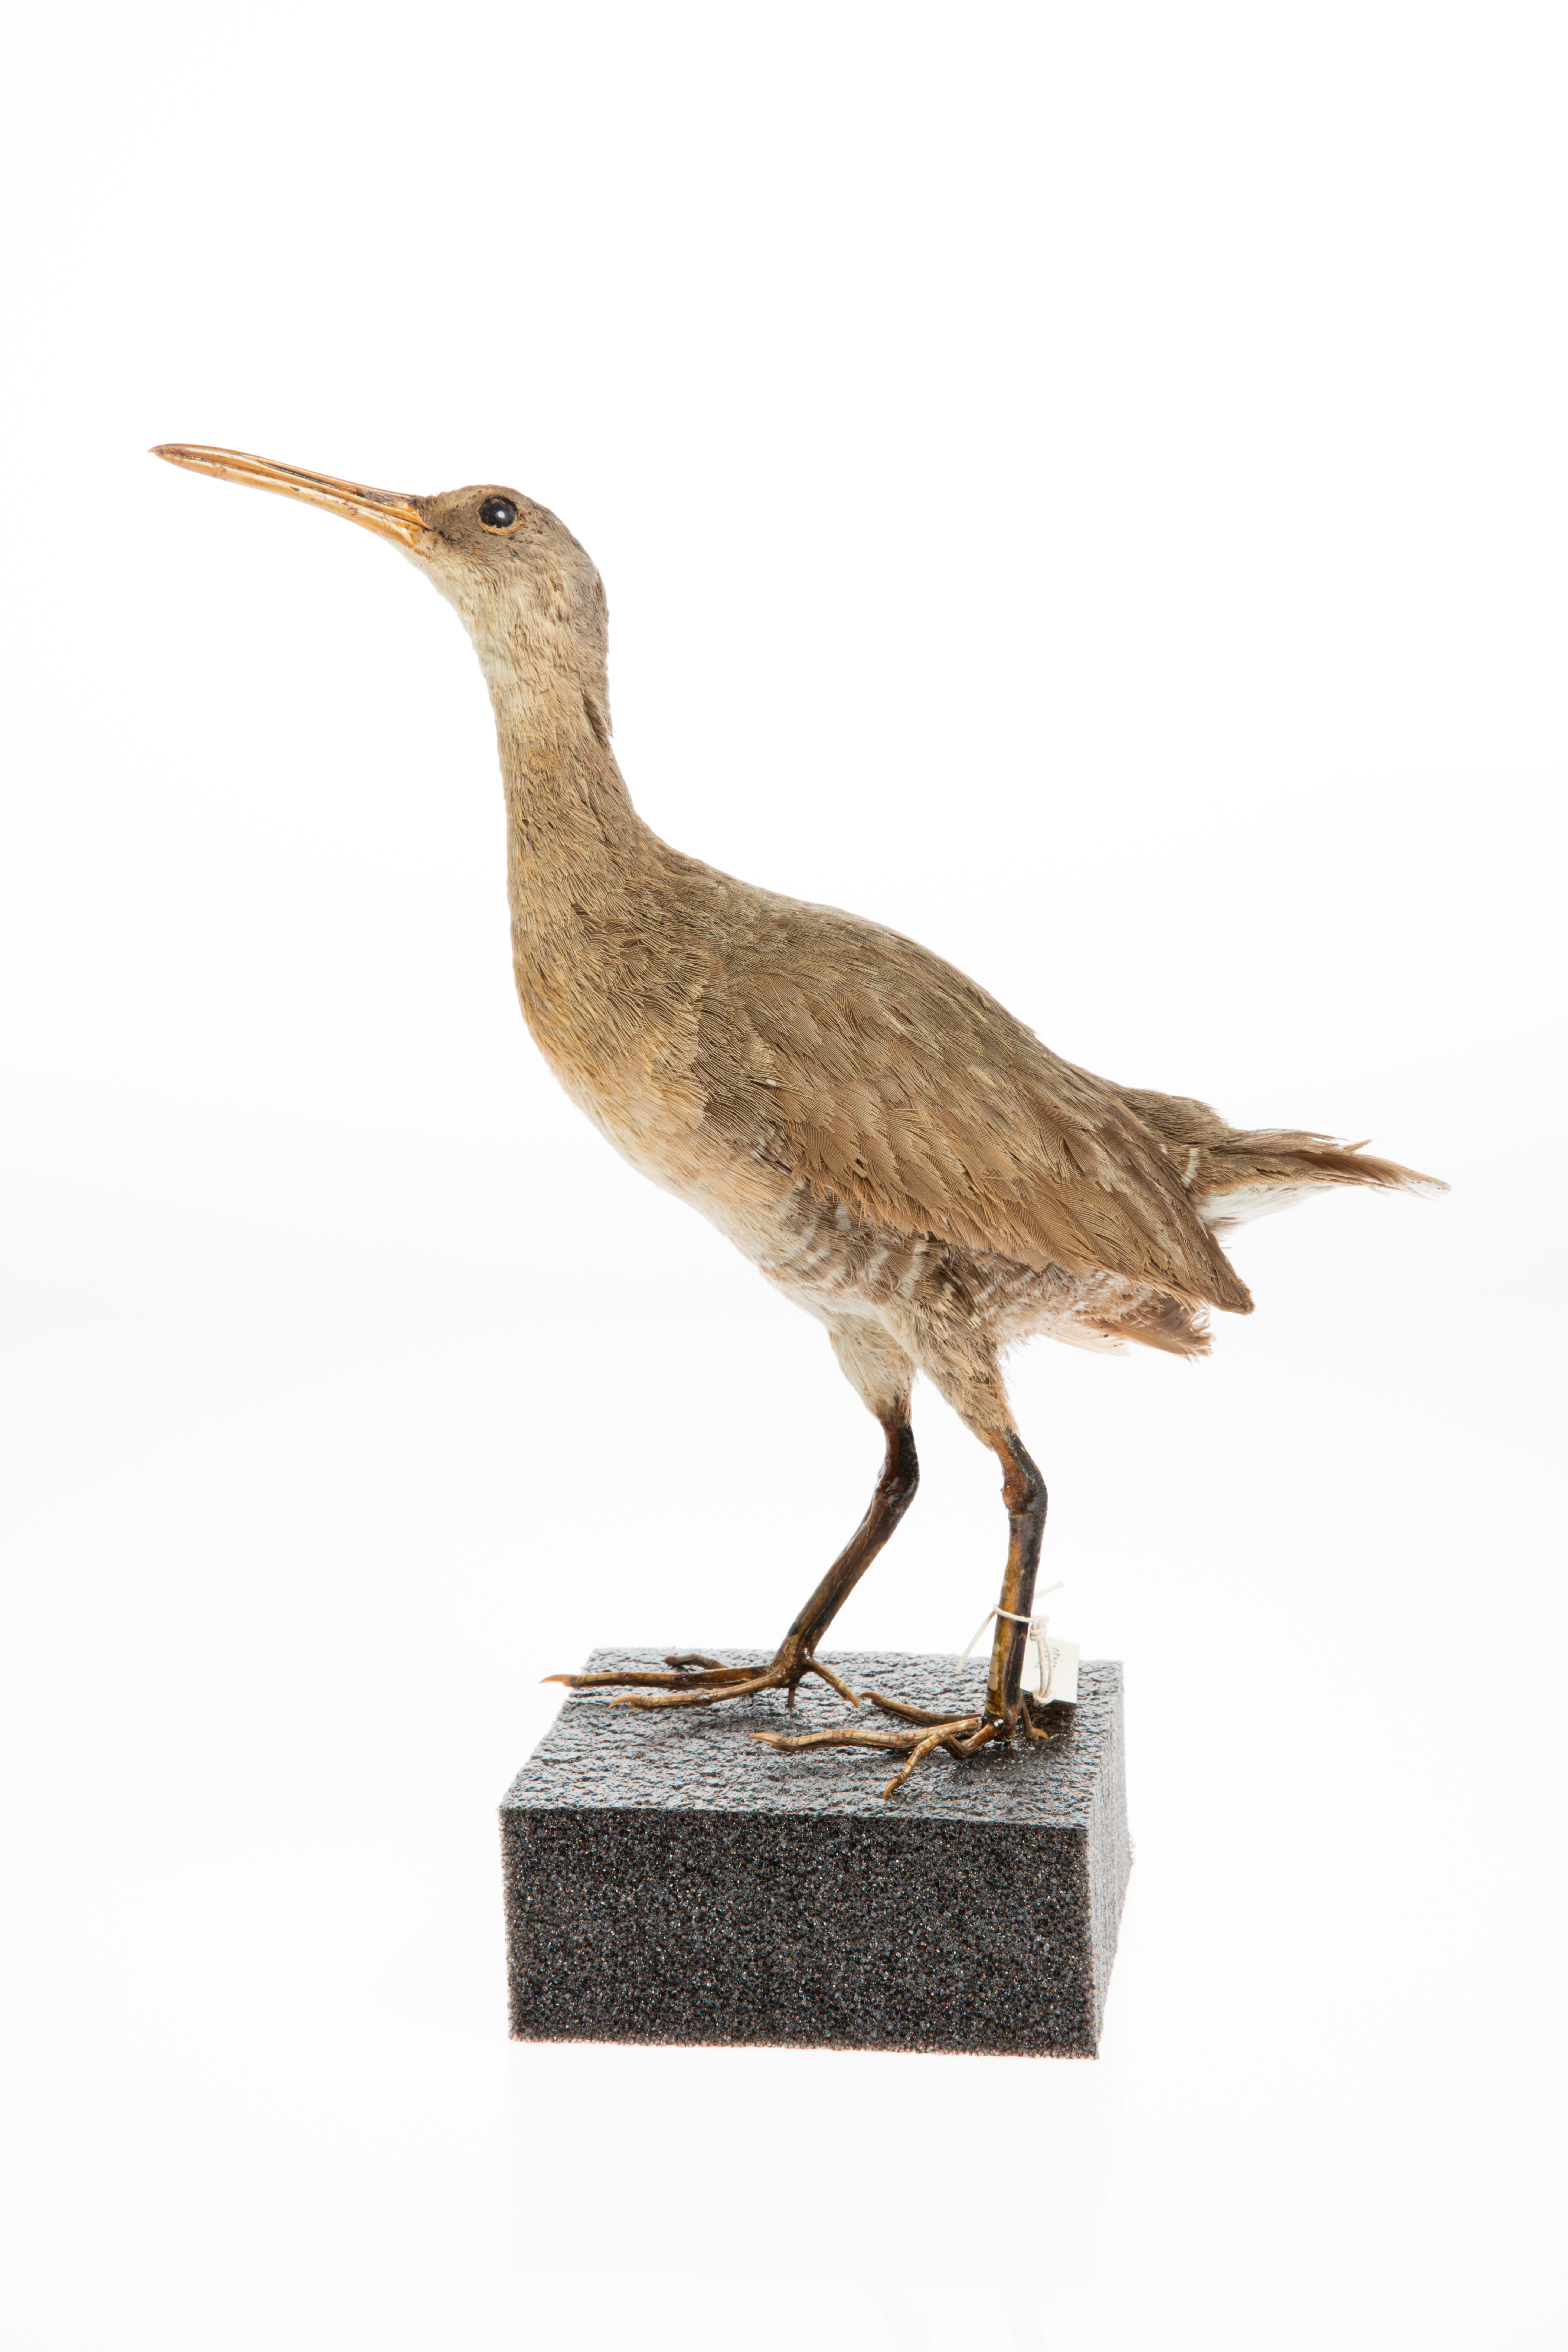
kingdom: Animalia
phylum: Chordata
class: Aves
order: Gruiformes
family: Rallidae
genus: Rallus
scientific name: Rallus longirostris
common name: Mangrove rail
